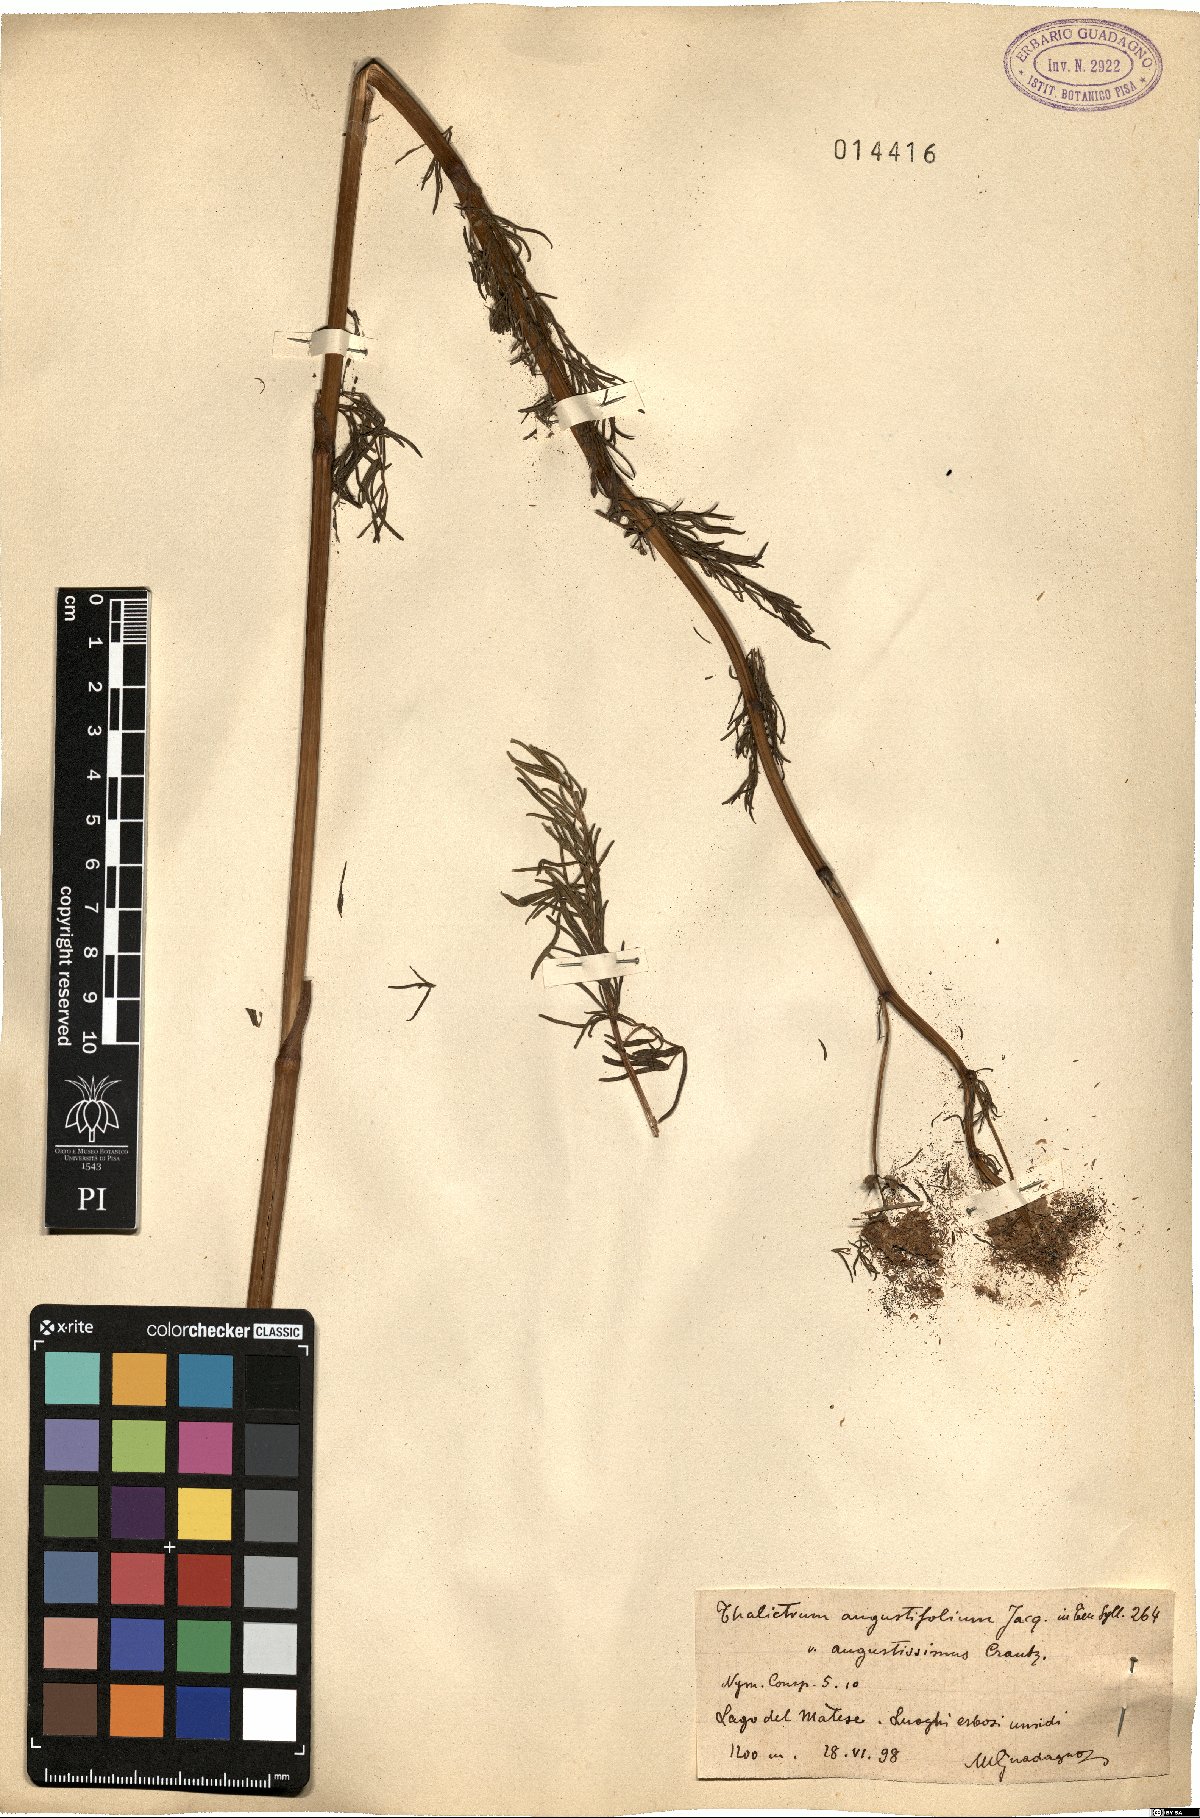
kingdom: Plantae
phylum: Tracheophyta
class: Magnoliopsida
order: Ranunculales
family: Ranunculaceae
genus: Thalictrum
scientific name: Thalictrum lucidum
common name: Shining meadow-rue
